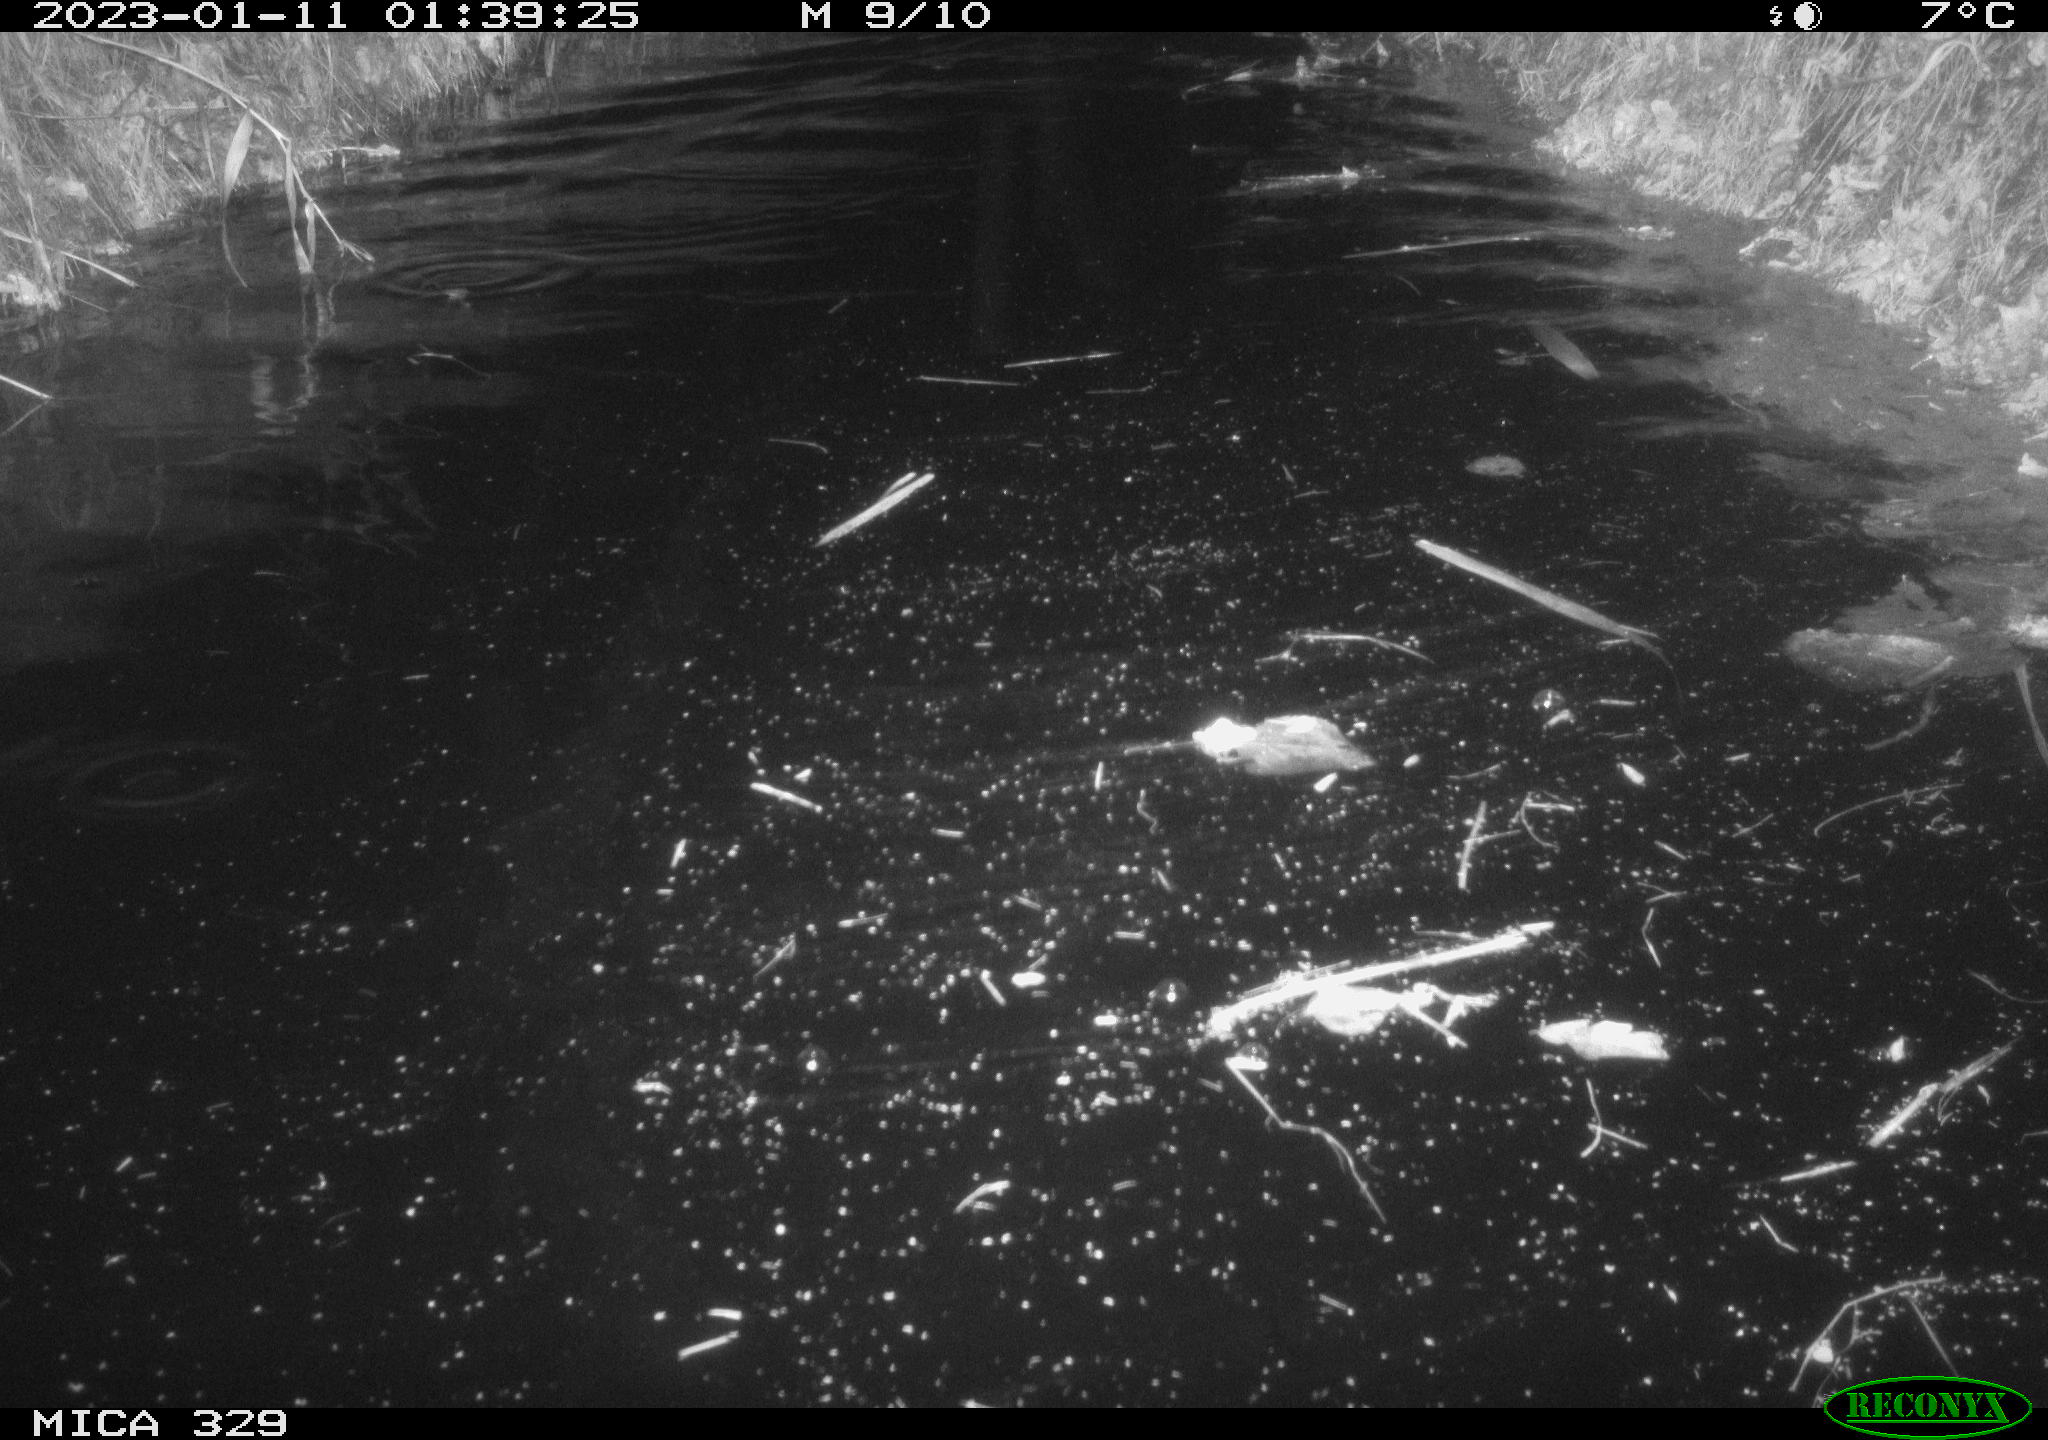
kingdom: Animalia
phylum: Chordata
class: Mammalia
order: Rodentia
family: Cricetidae
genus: Ondatra
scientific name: Ondatra zibethicus
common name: Muskrat
